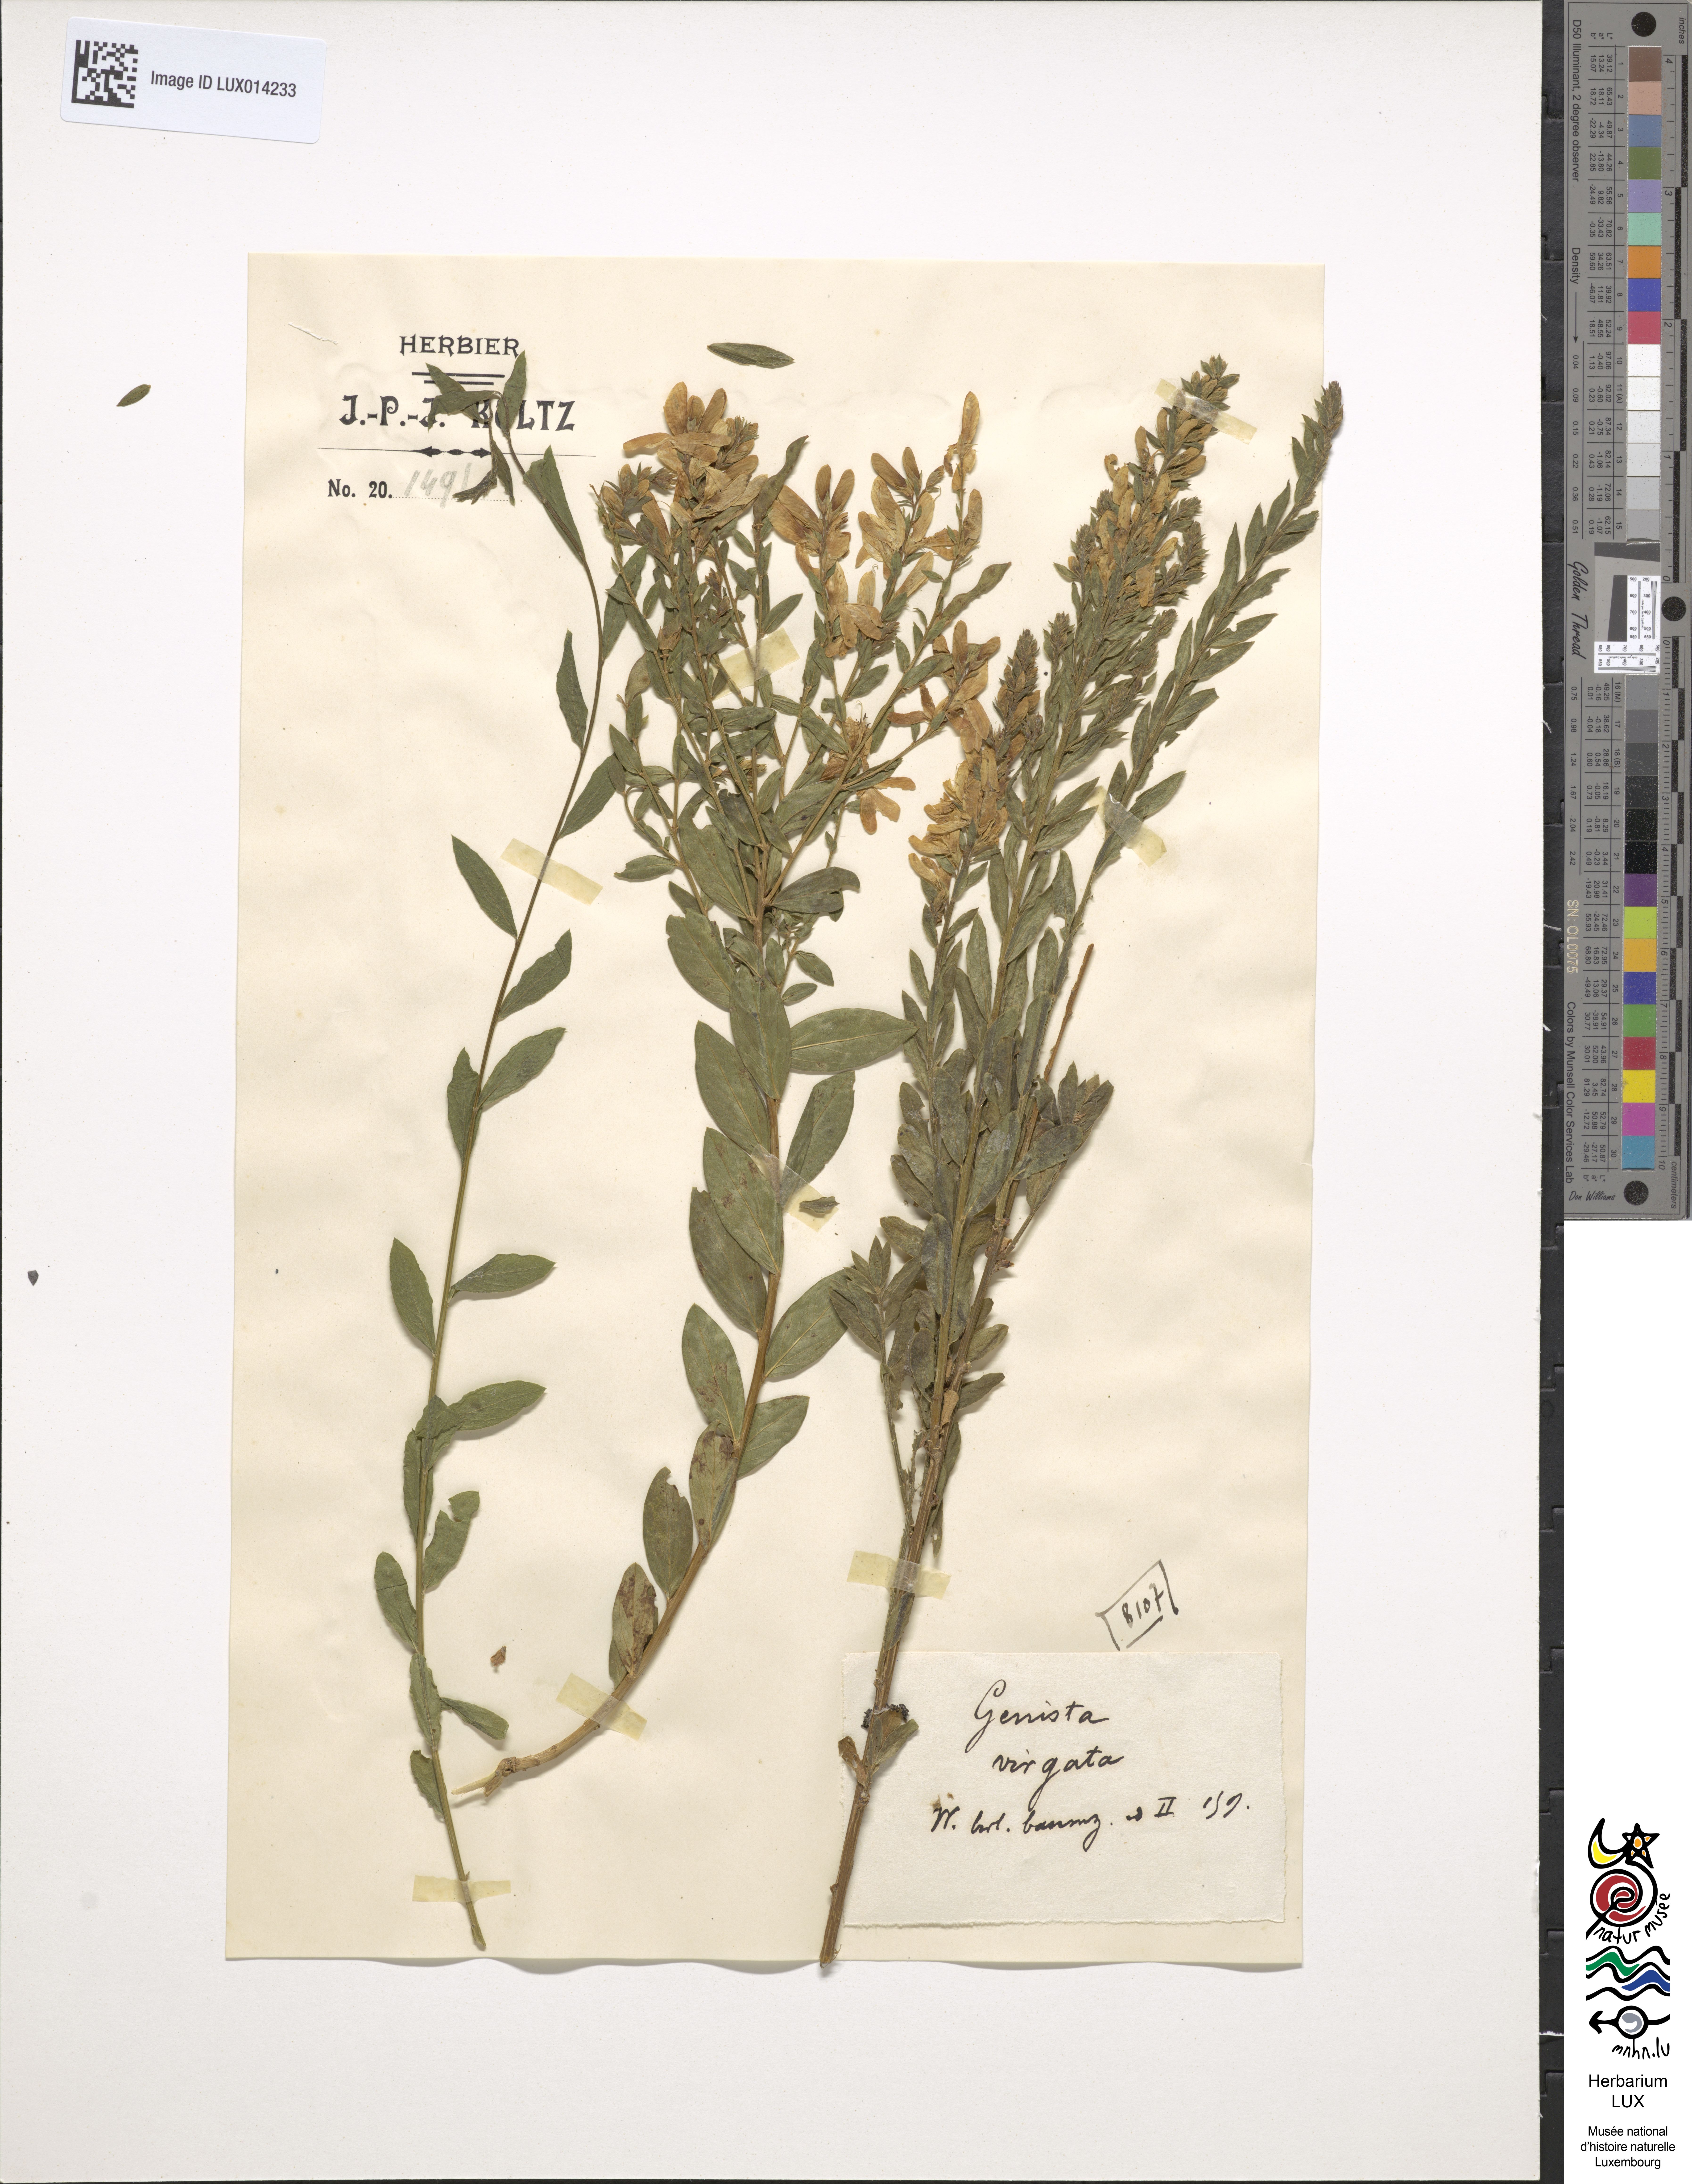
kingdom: Plantae
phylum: Tracheophyta
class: Magnoliopsida
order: Fabales
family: Fabaceae
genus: Genista
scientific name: Genista tinctoria
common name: Dyer's greenweed
